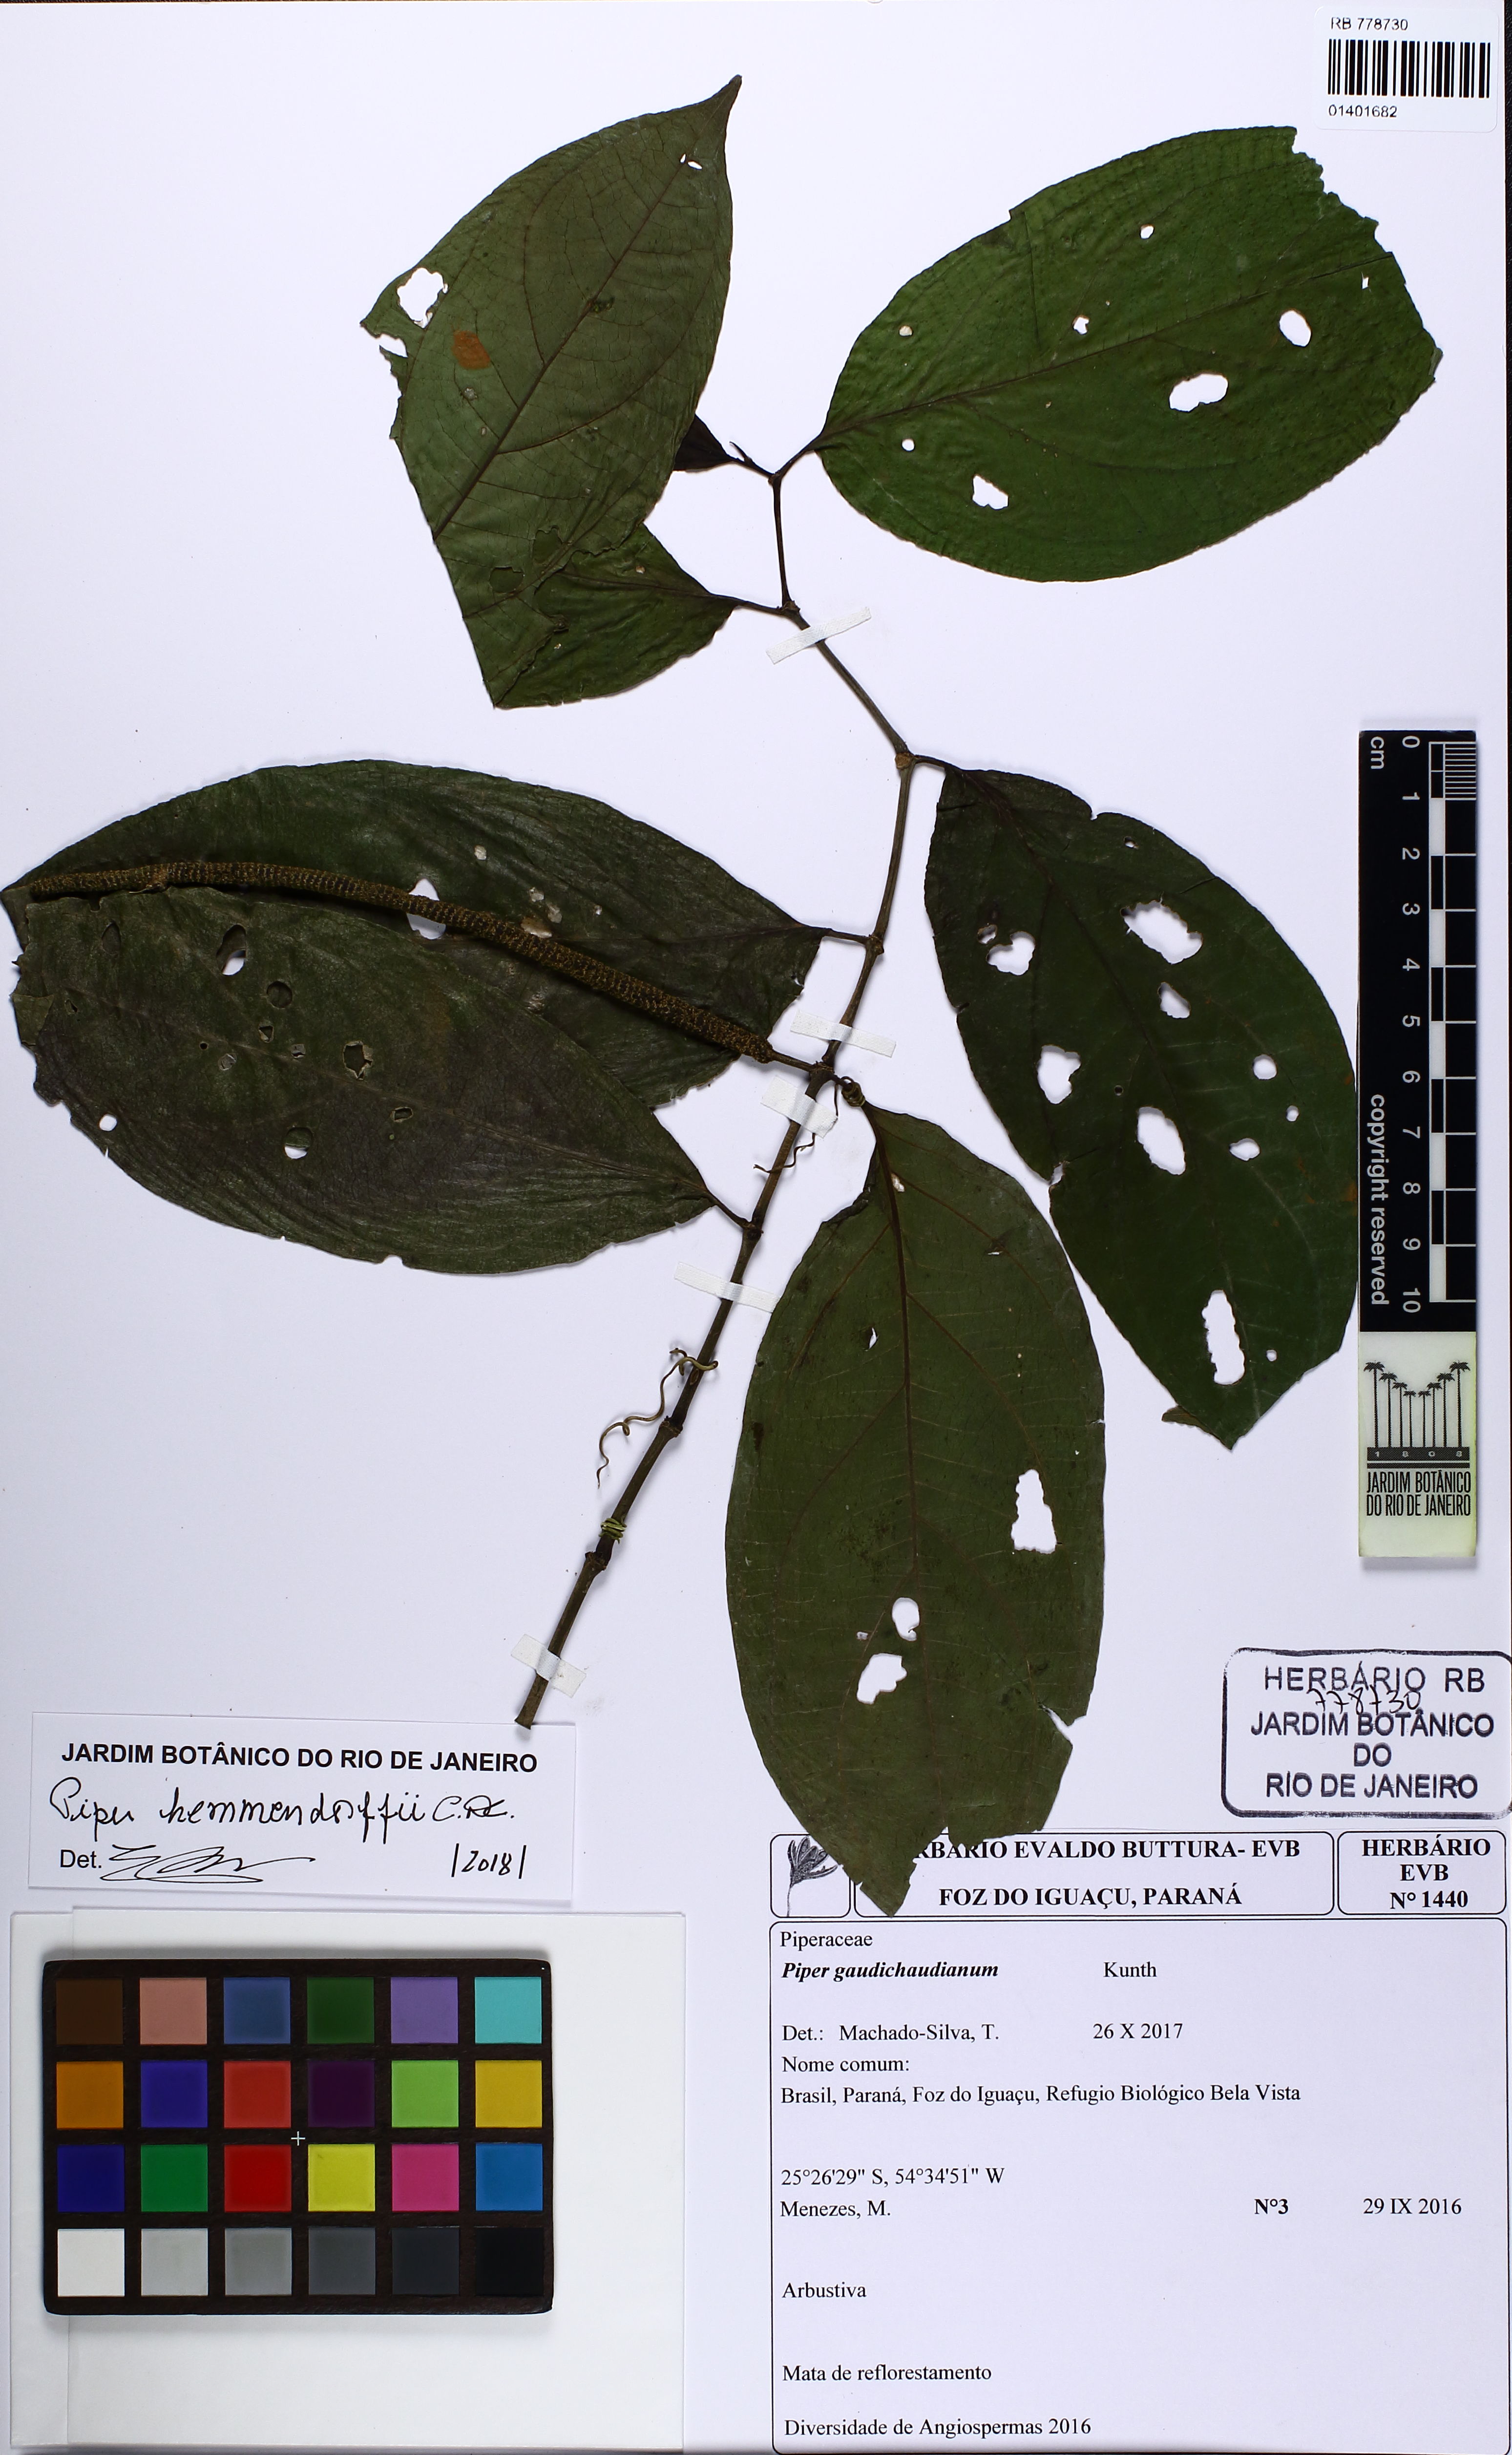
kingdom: Plantae
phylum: Tracheophyta
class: Magnoliopsida
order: Piperales
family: Piperaceae
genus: Piper
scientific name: Piper hemmendorffii
